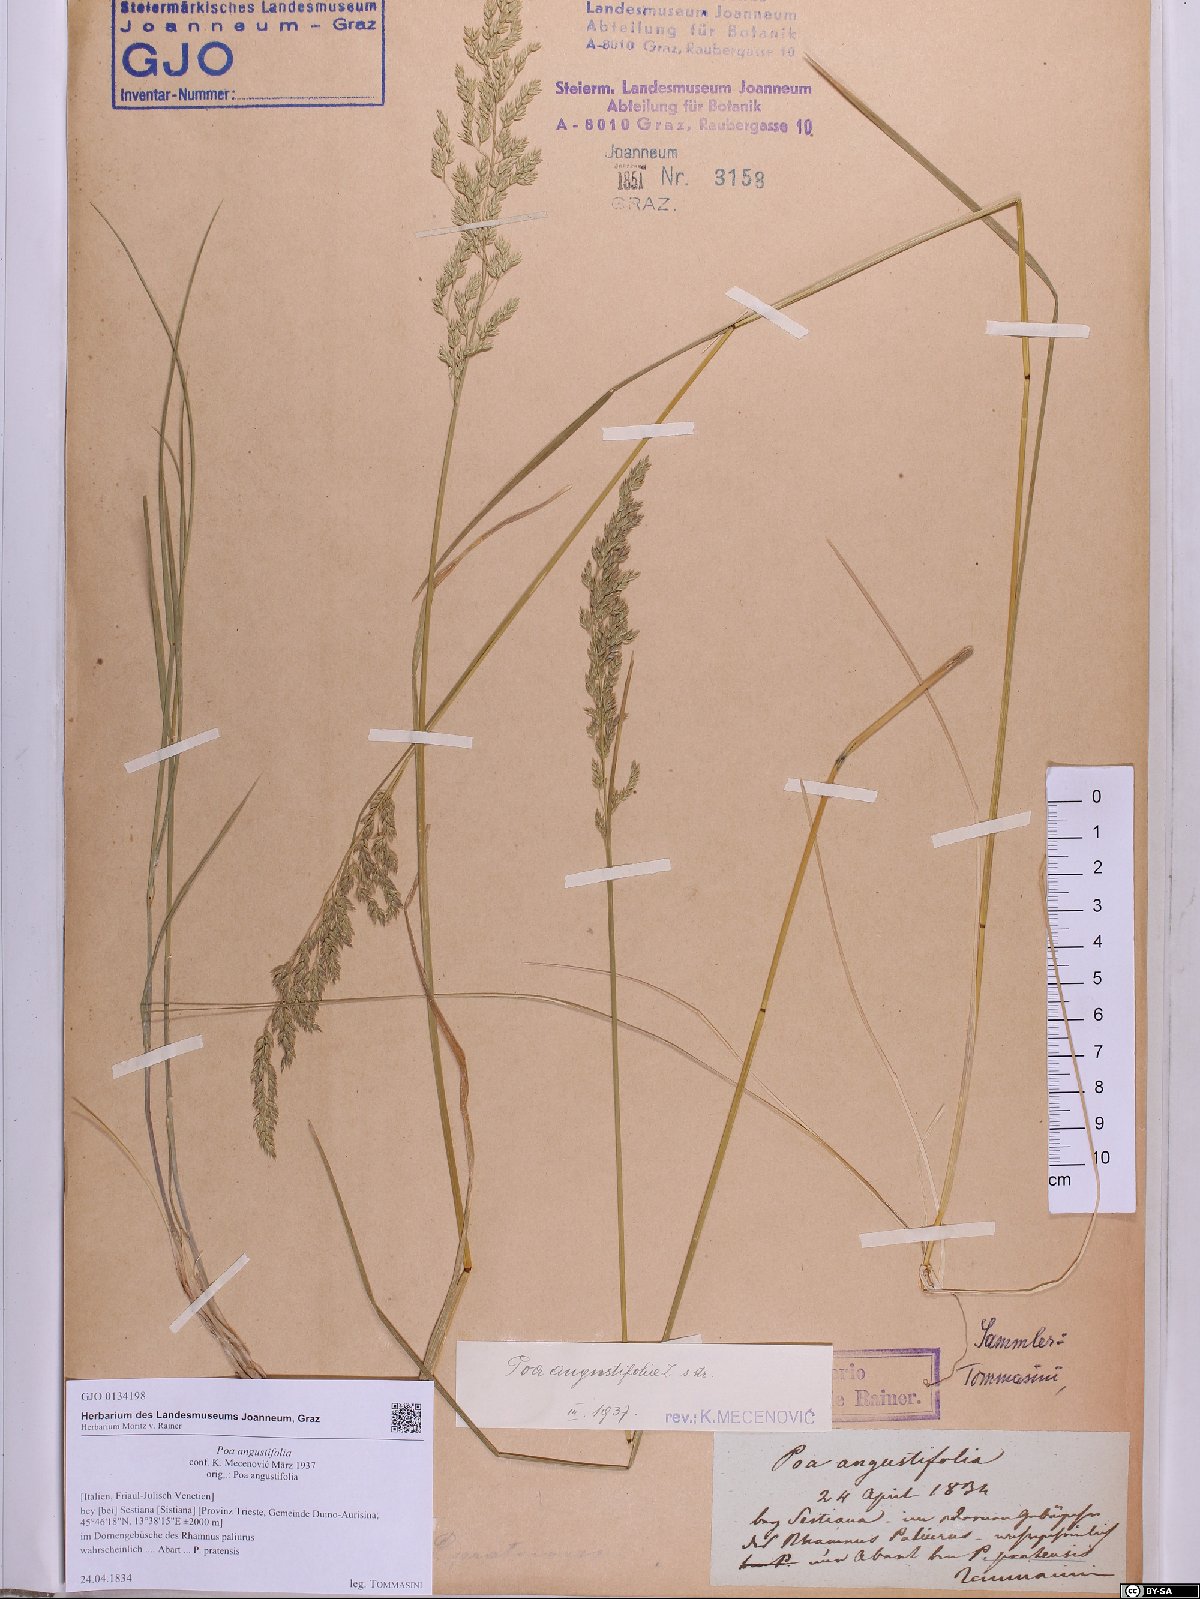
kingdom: Plantae
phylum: Tracheophyta
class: Liliopsida
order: Poales
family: Poaceae
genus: Poa
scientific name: Poa angustifolia
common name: Narrow-leaved meadow-grass
